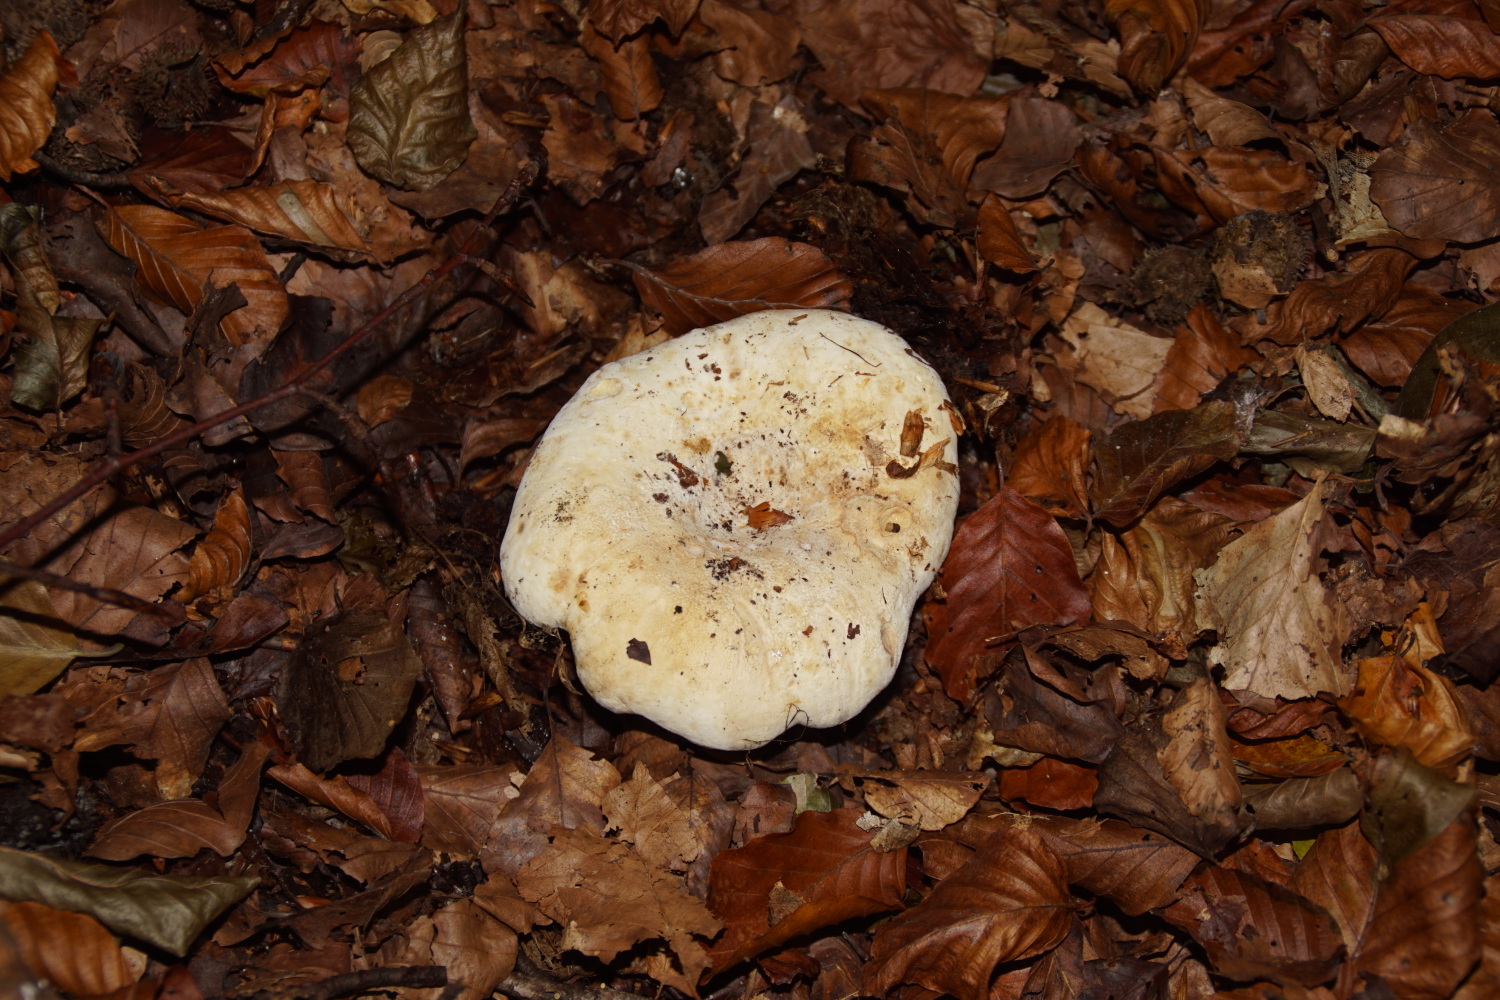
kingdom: Fungi
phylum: Basidiomycota
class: Agaricomycetes
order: Russulales
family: Russulaceae
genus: Lactifluus
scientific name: Lactifluus vellereus
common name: hvidfiltet mælkehat
